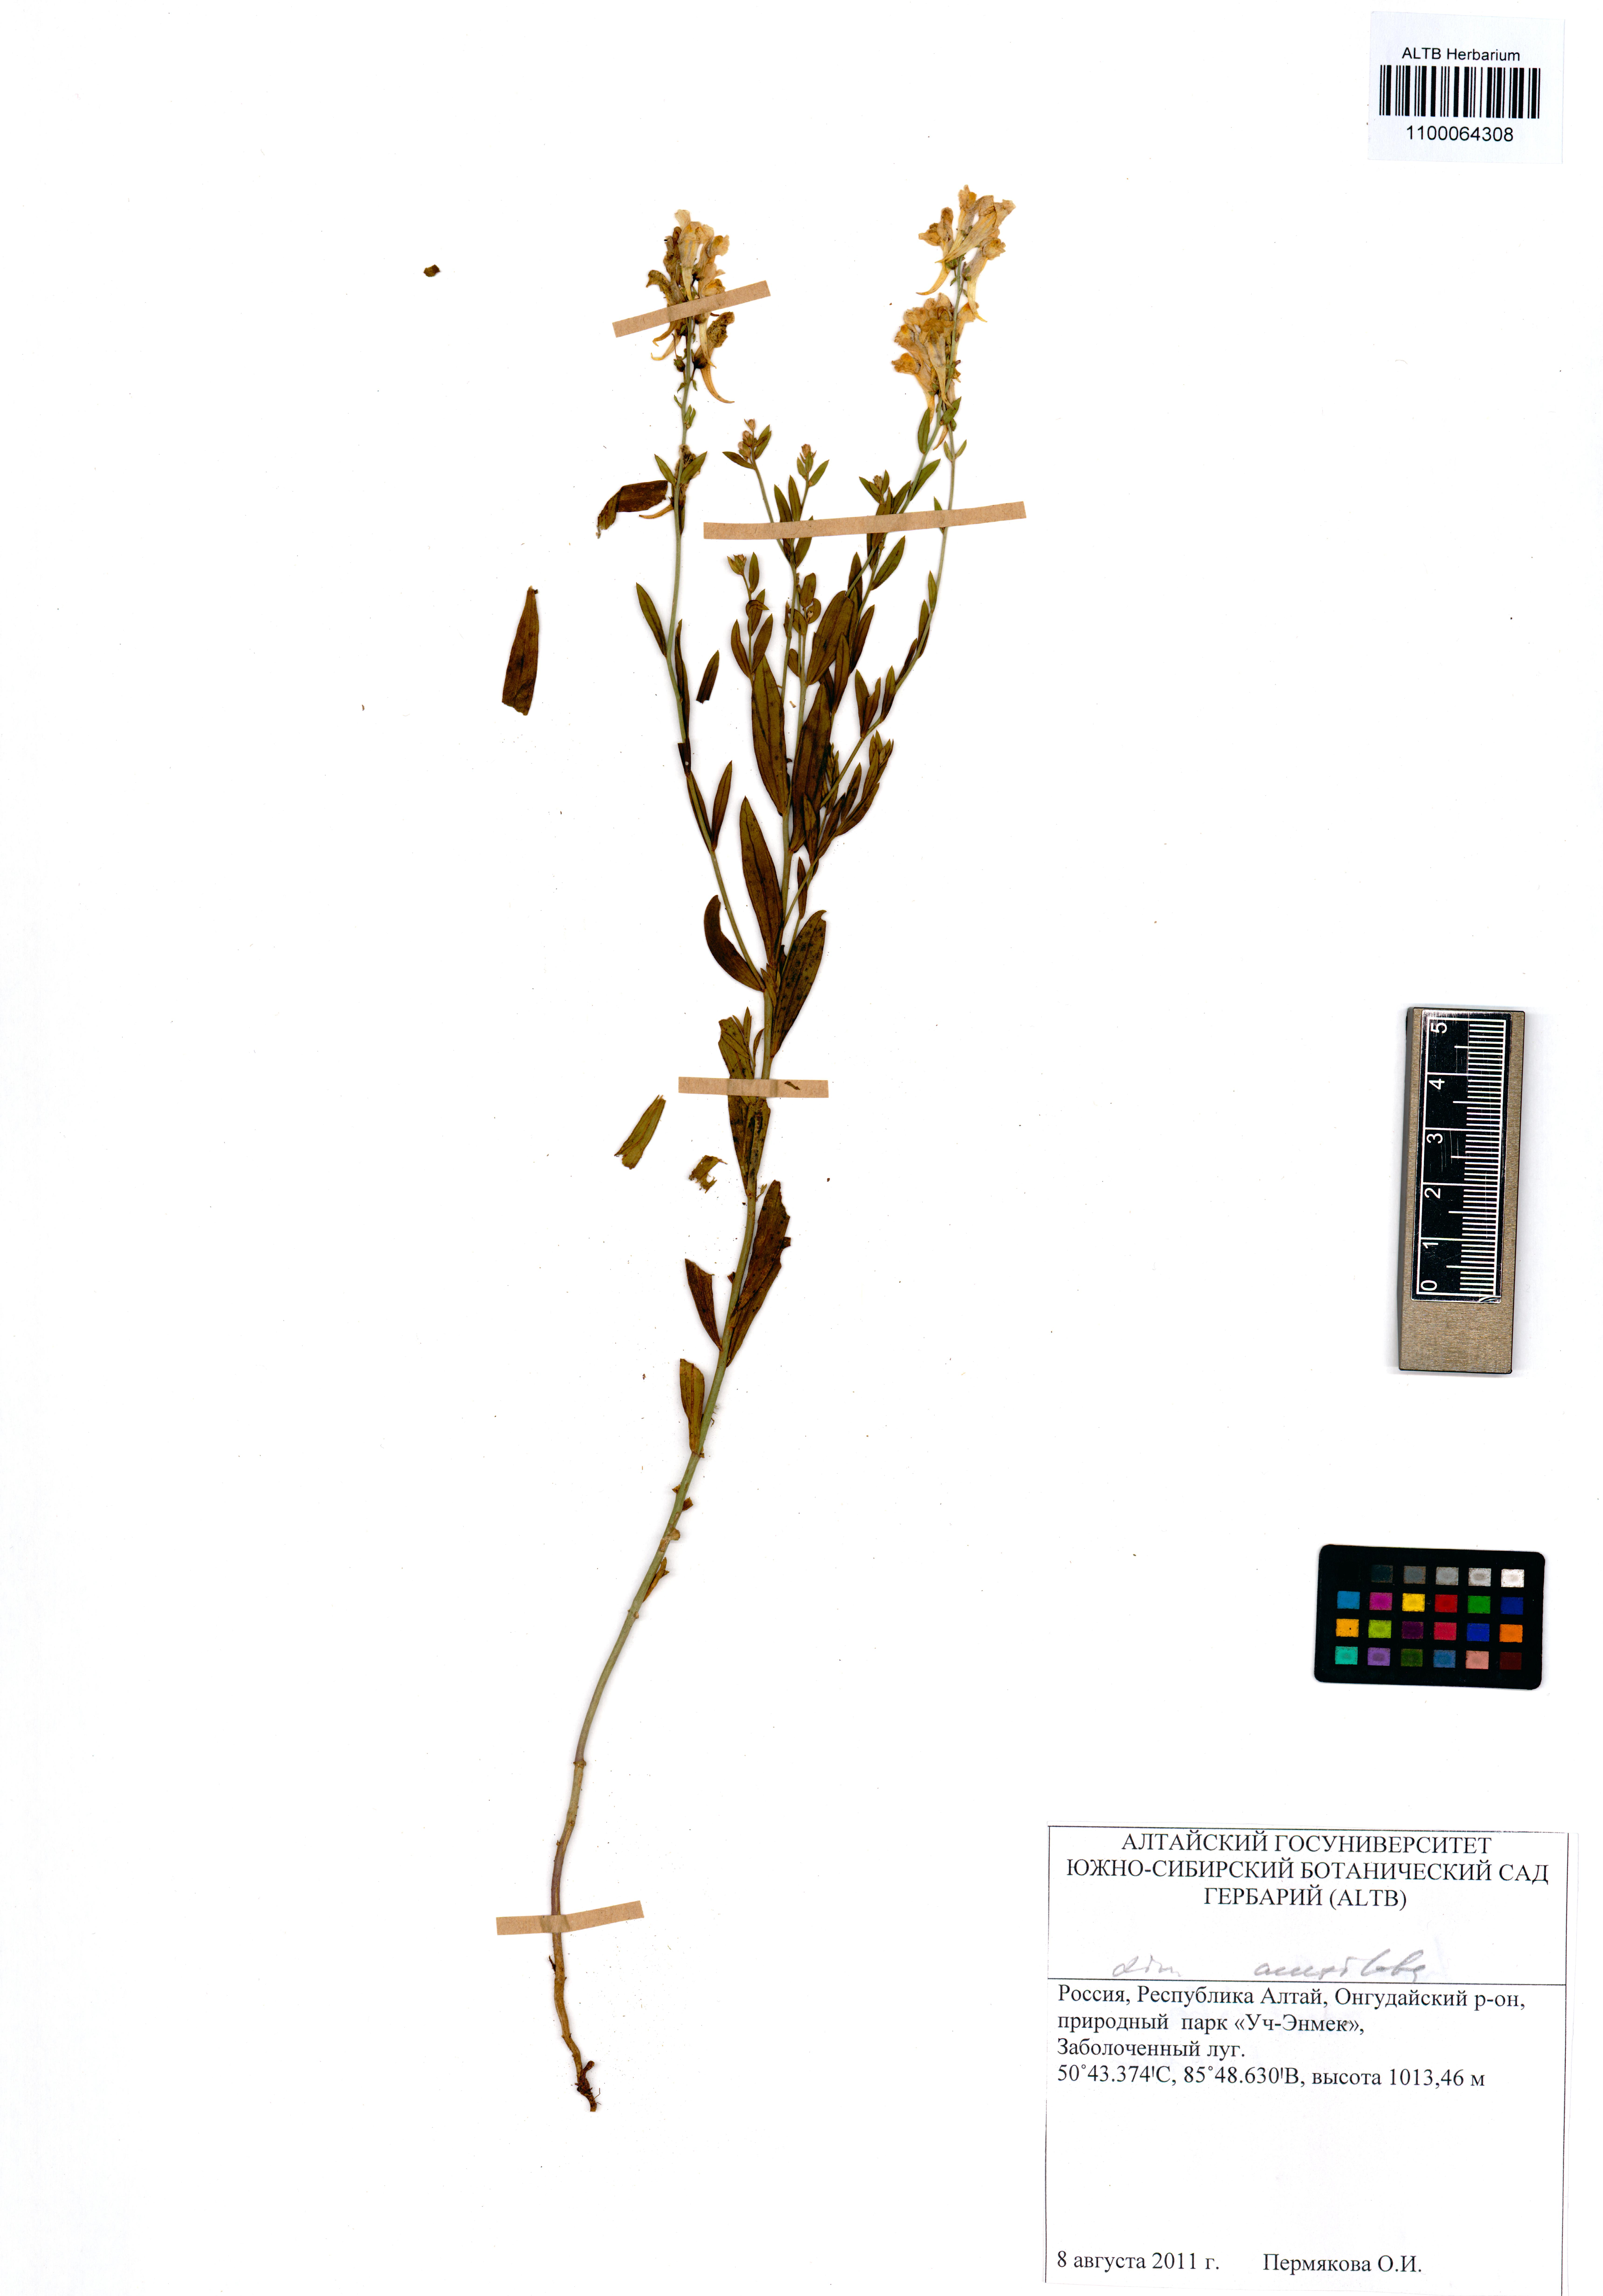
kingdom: Plantae
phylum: Tracheophyta
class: Magnoliopsida
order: Lamiales
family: Plantaginaceae
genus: Linaria
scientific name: Linaria acutiloba
